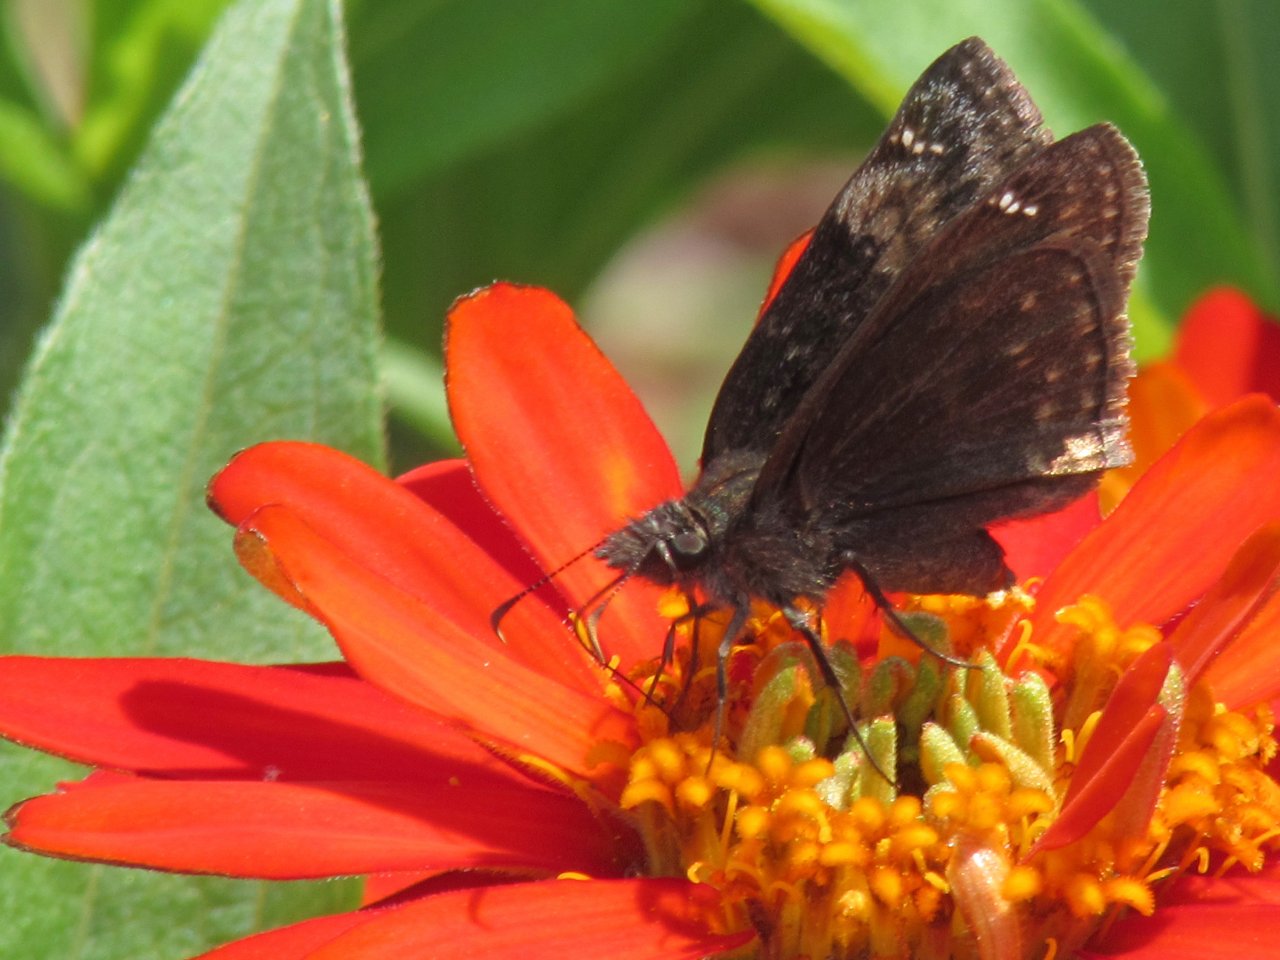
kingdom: Animalia
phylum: Arthropoda
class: Insecta
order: Lepidoptera
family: Hesperiidae
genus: Gesta
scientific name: Gesta
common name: Wild Indigo Duskywing
